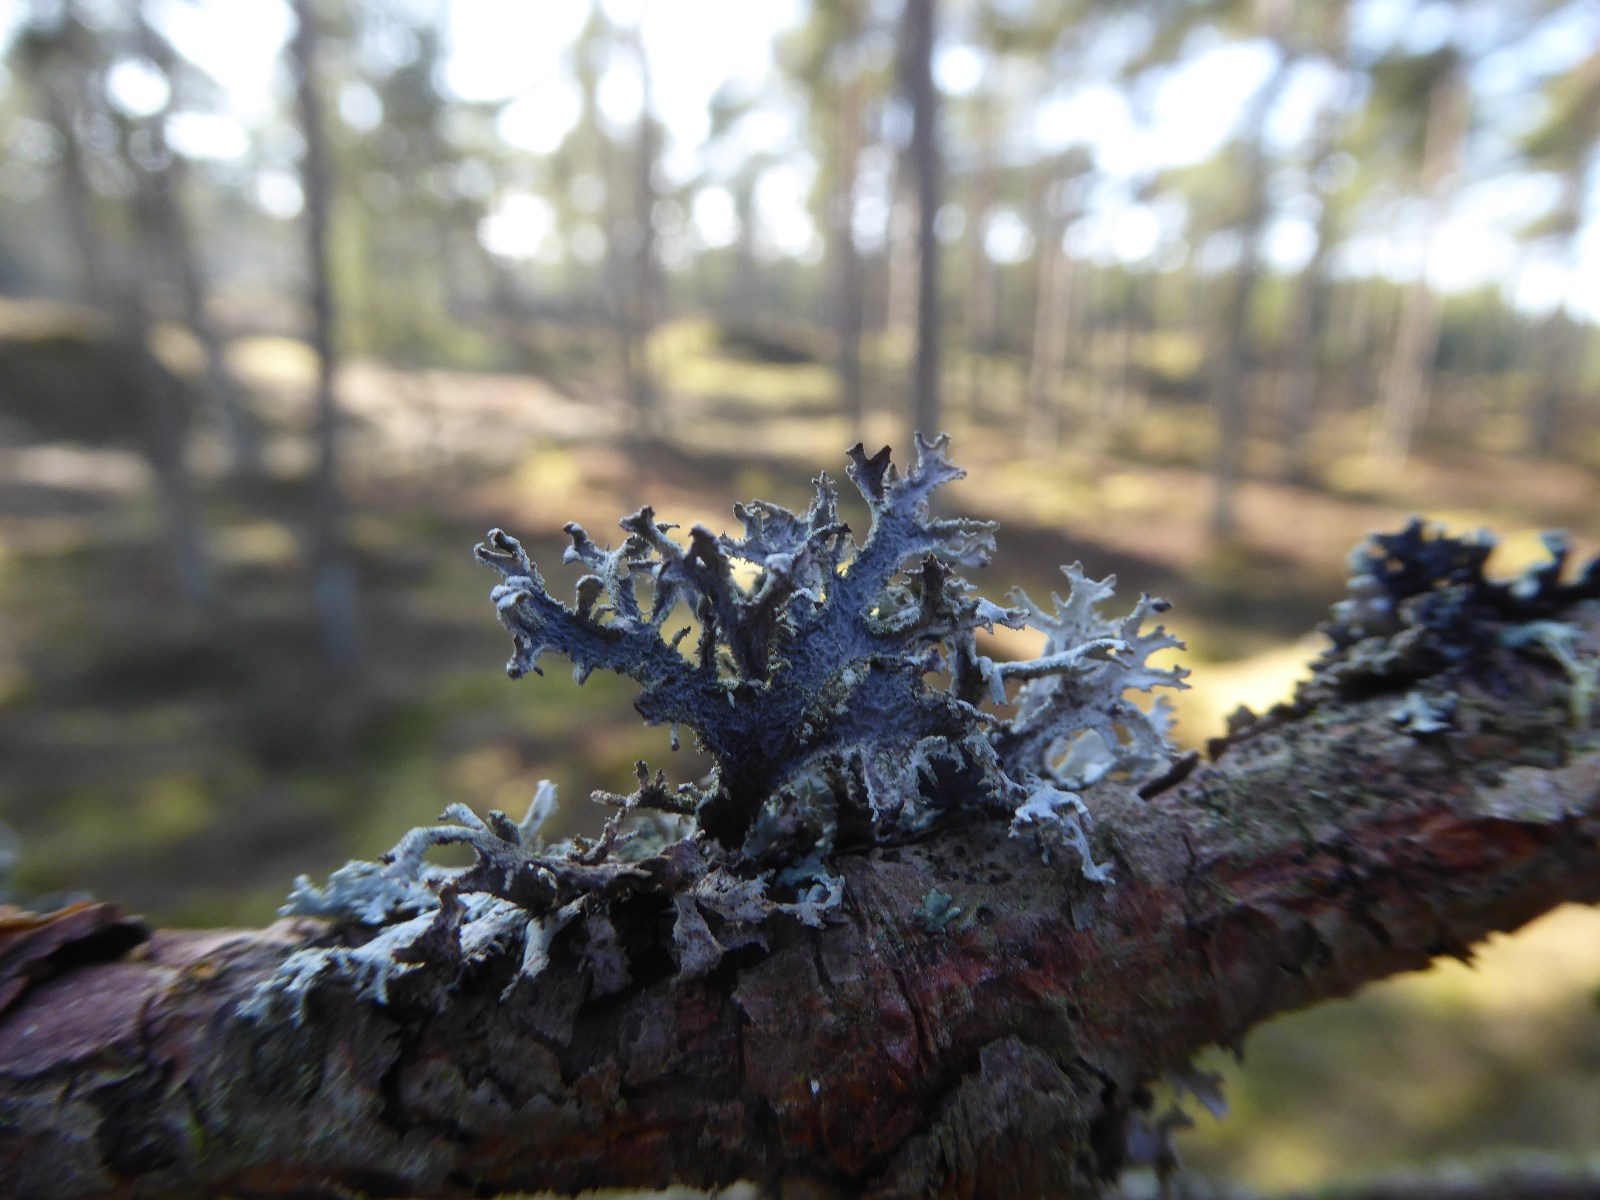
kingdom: Fungi
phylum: Ascomycota
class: Lecanoromycetes
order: Lecanorales
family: Parmeliaceae
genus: Pseudevernia
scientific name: Pseudevernia furfuracea
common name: grå fyrrelav
